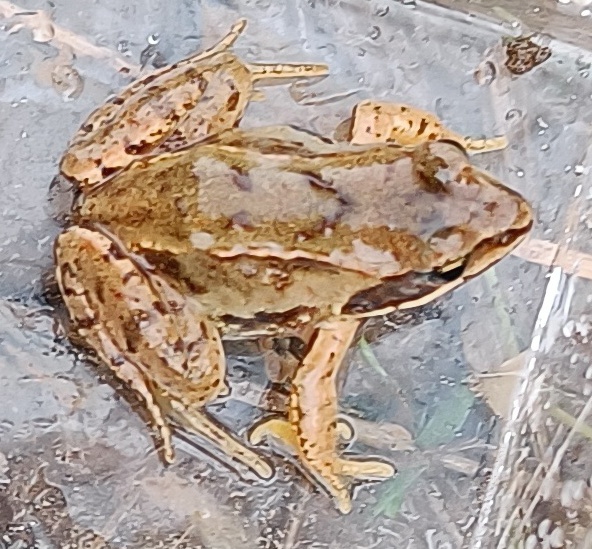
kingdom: Animalia
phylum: Chordata
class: Amphibia
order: Anura
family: Ranidae
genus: Rana
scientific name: Rana arvalis
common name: Spidssnudet frø
